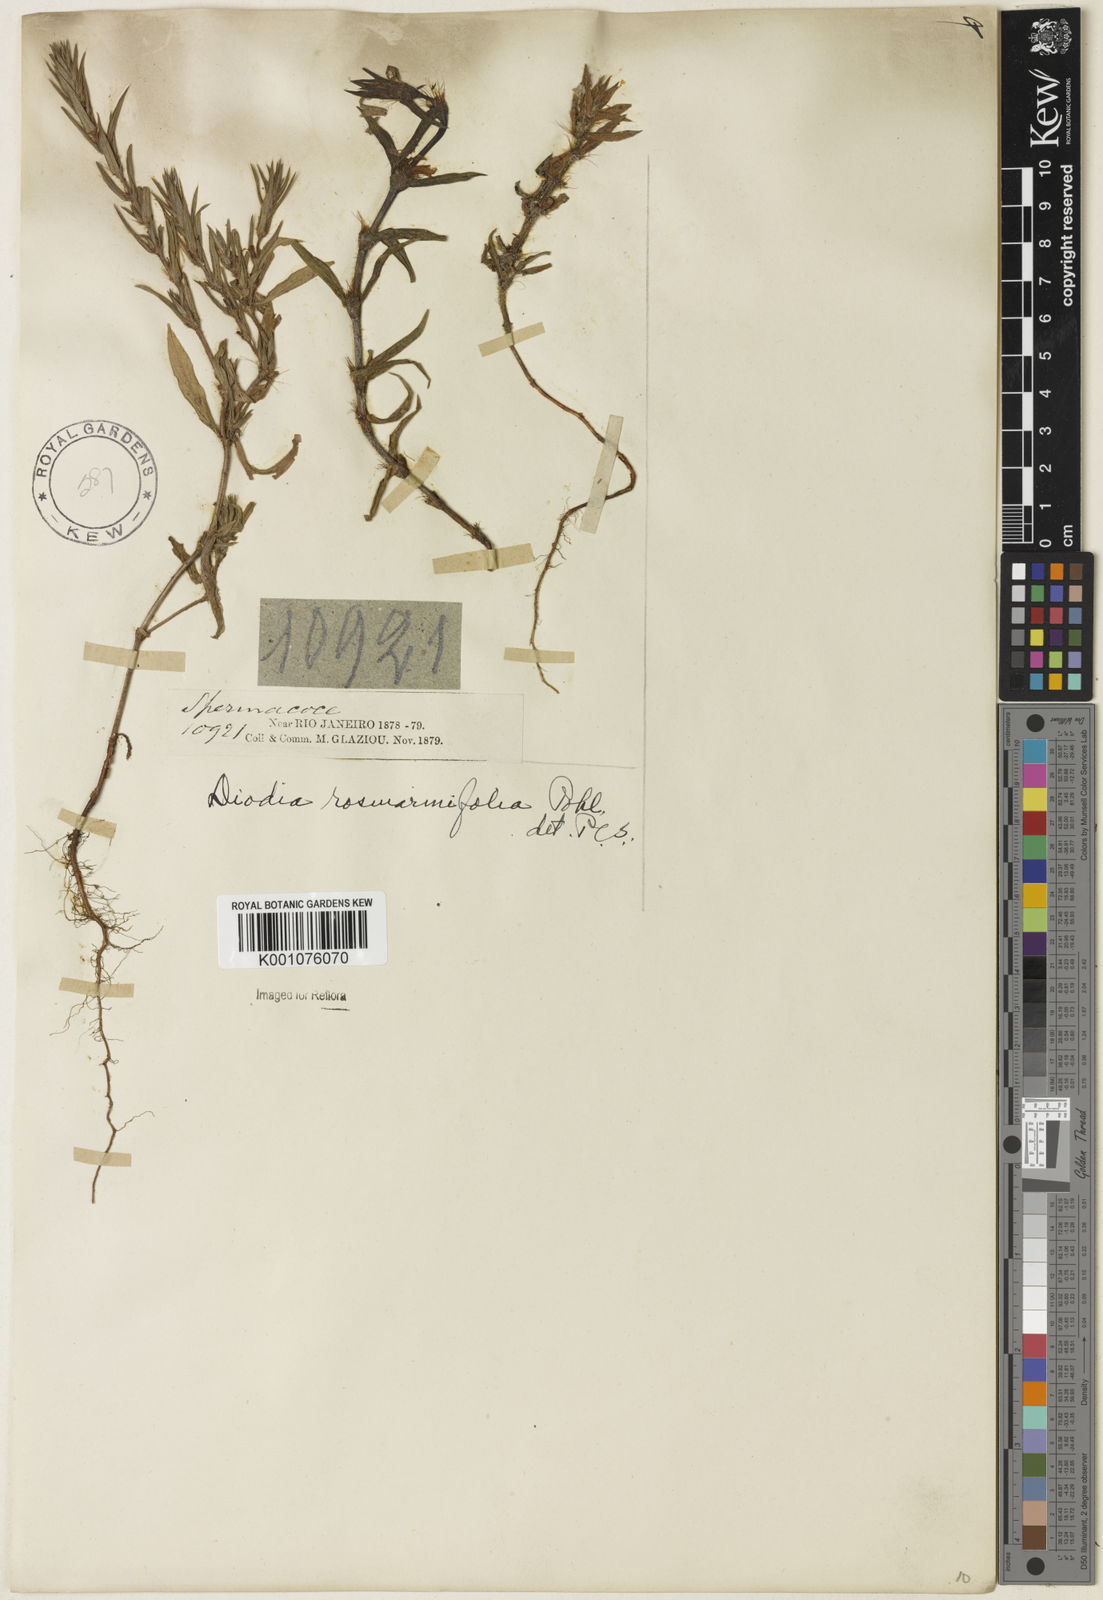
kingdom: Plantae
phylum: Tracheophyta
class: Magnoliopsida
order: Gentianales
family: Rubiaceae
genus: Hexasepalum
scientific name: Hexasepalum
